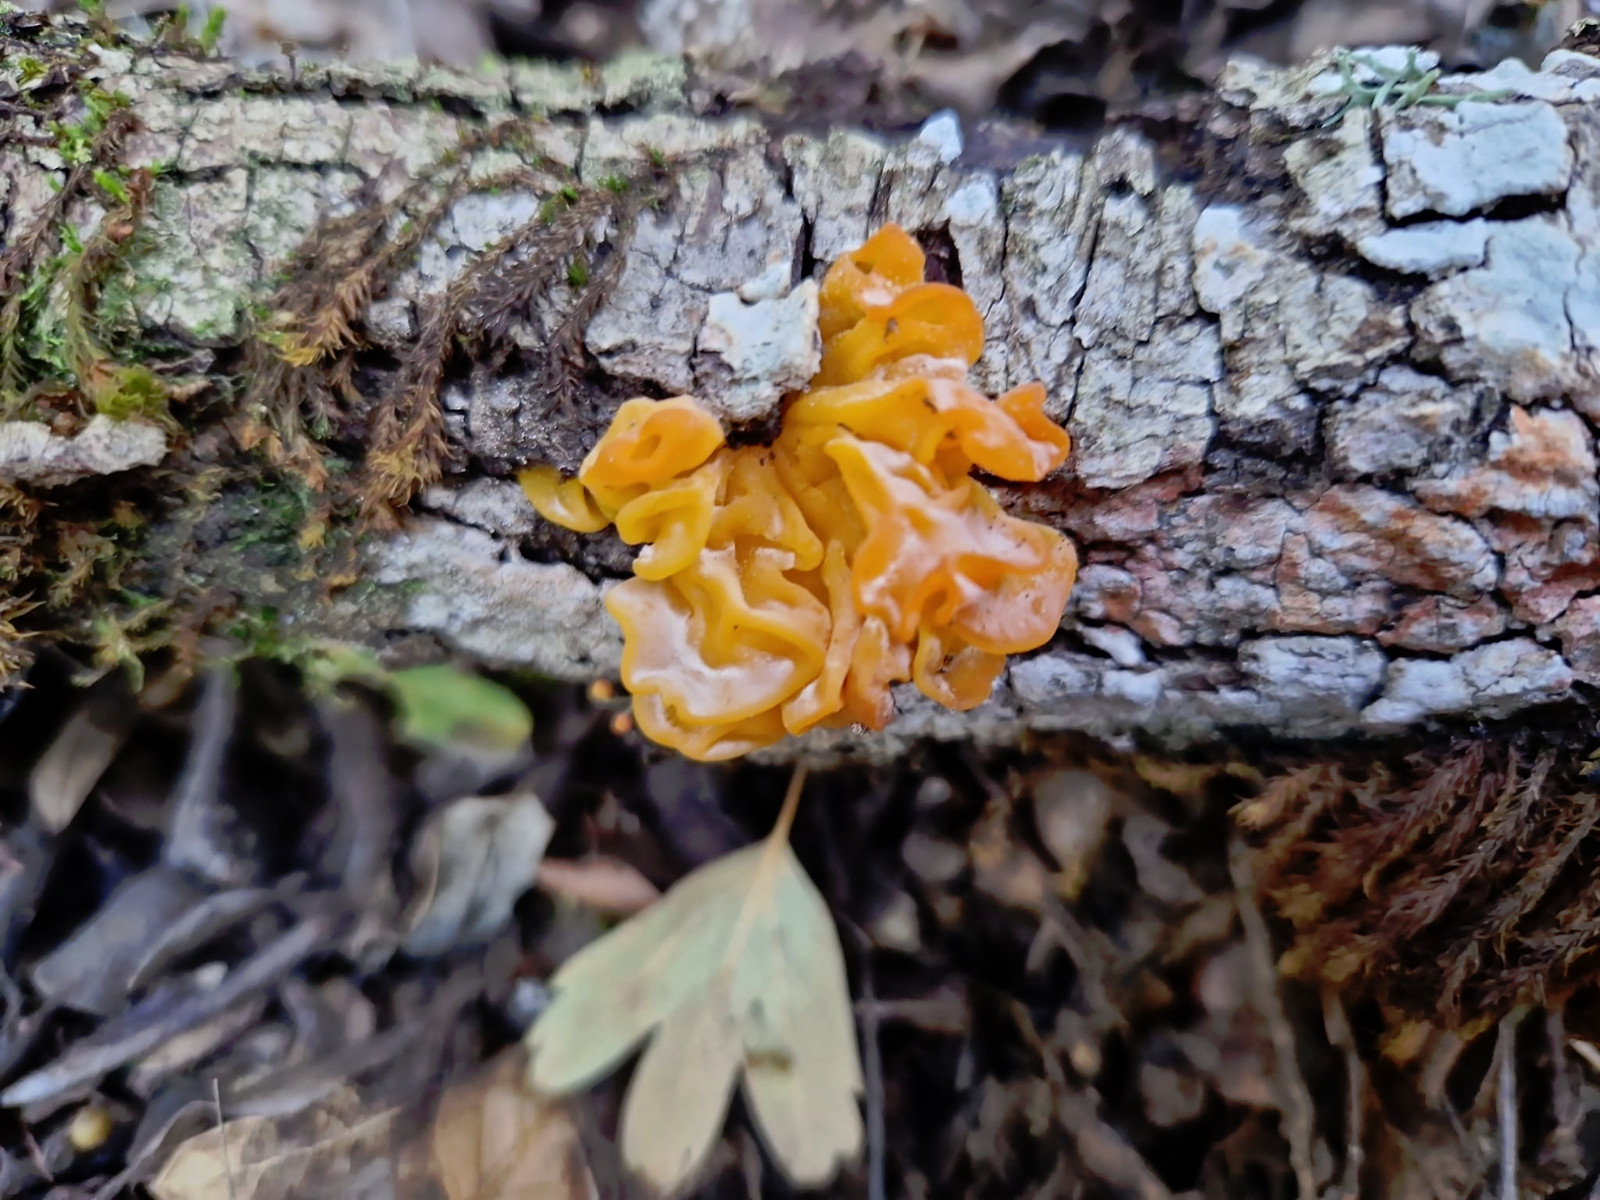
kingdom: Fungi
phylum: Basidiomycota
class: Tremellomycetes
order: Tremellales
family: Naemateliaceae
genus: Naematelia
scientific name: Naematelia aurantia
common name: Golden ear
